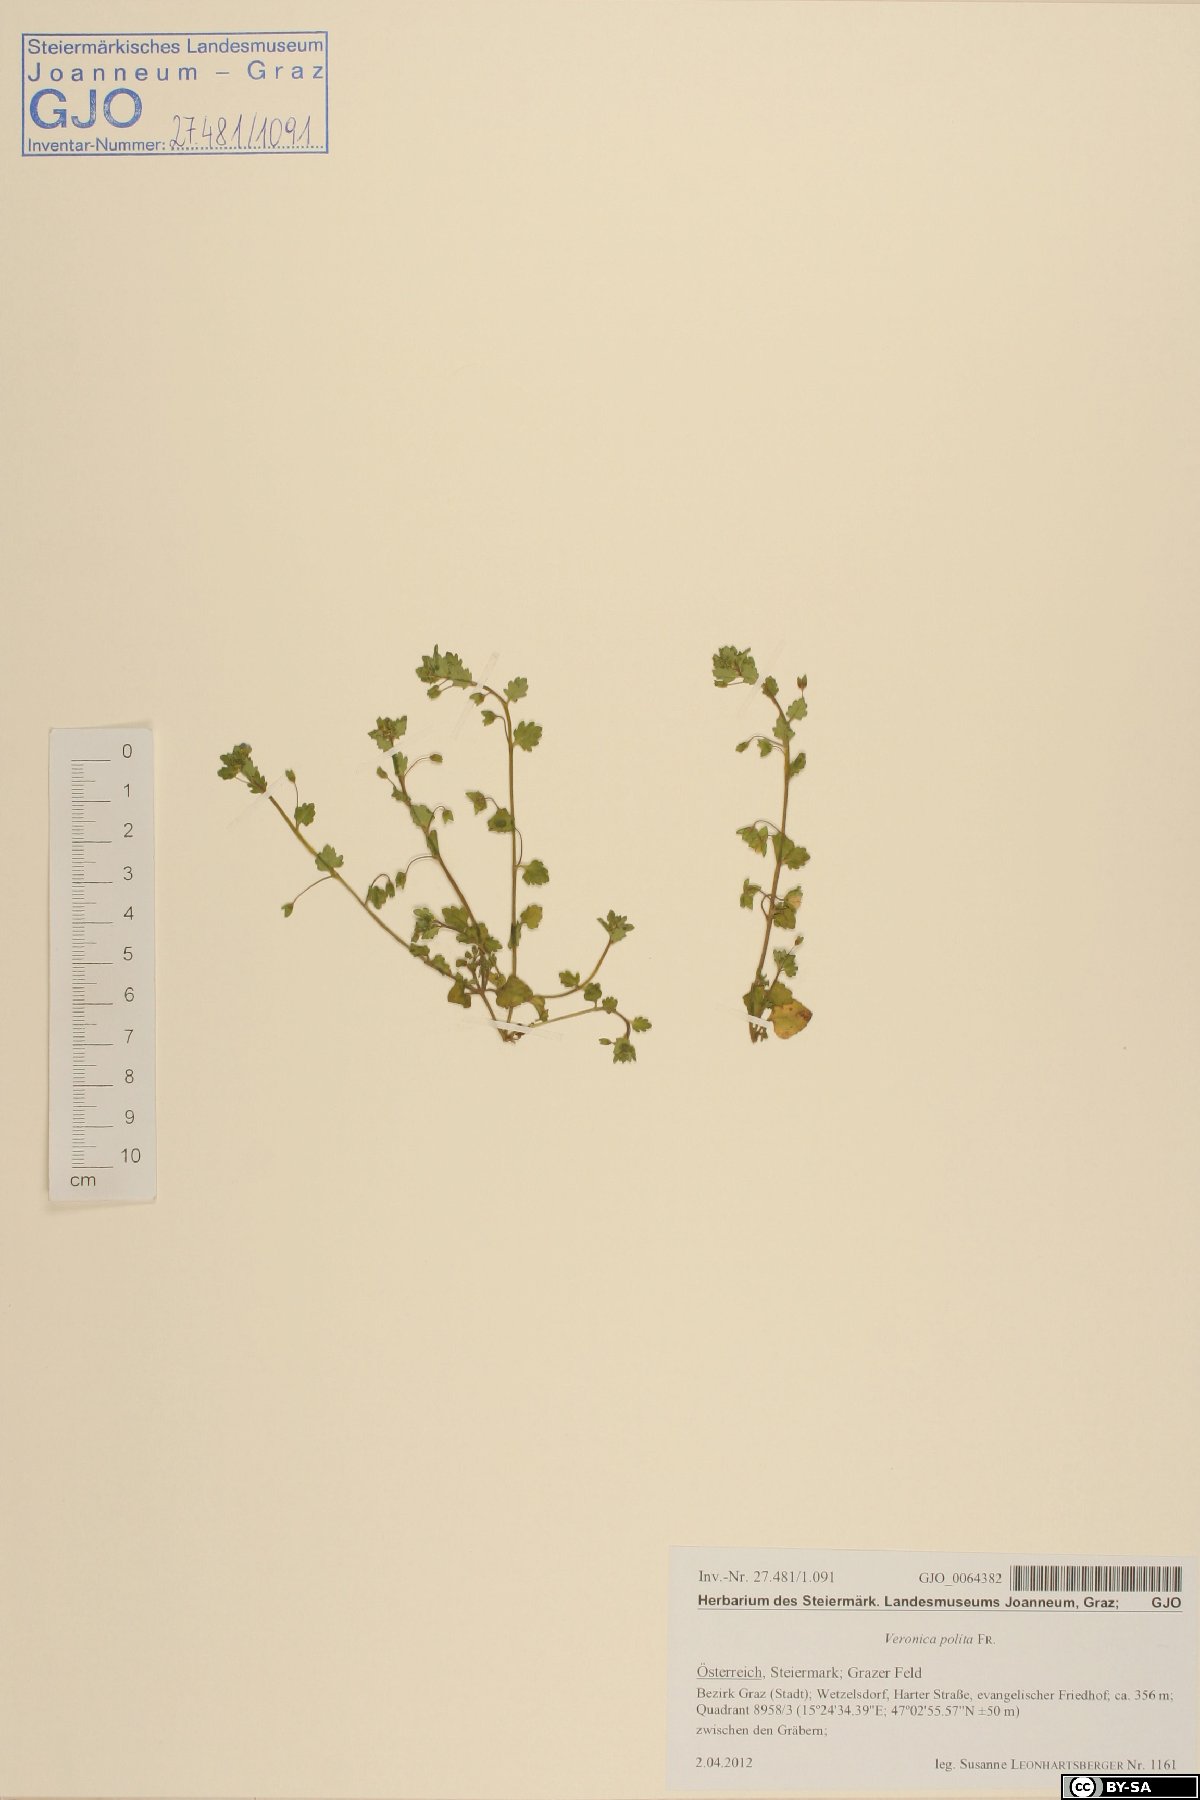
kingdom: Plantae
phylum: Tracheophyta
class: Magnoliopsida
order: Lamiales
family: Plantaginaceae
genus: Veronica
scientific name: Veronica polita
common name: Grey field-speedwell
